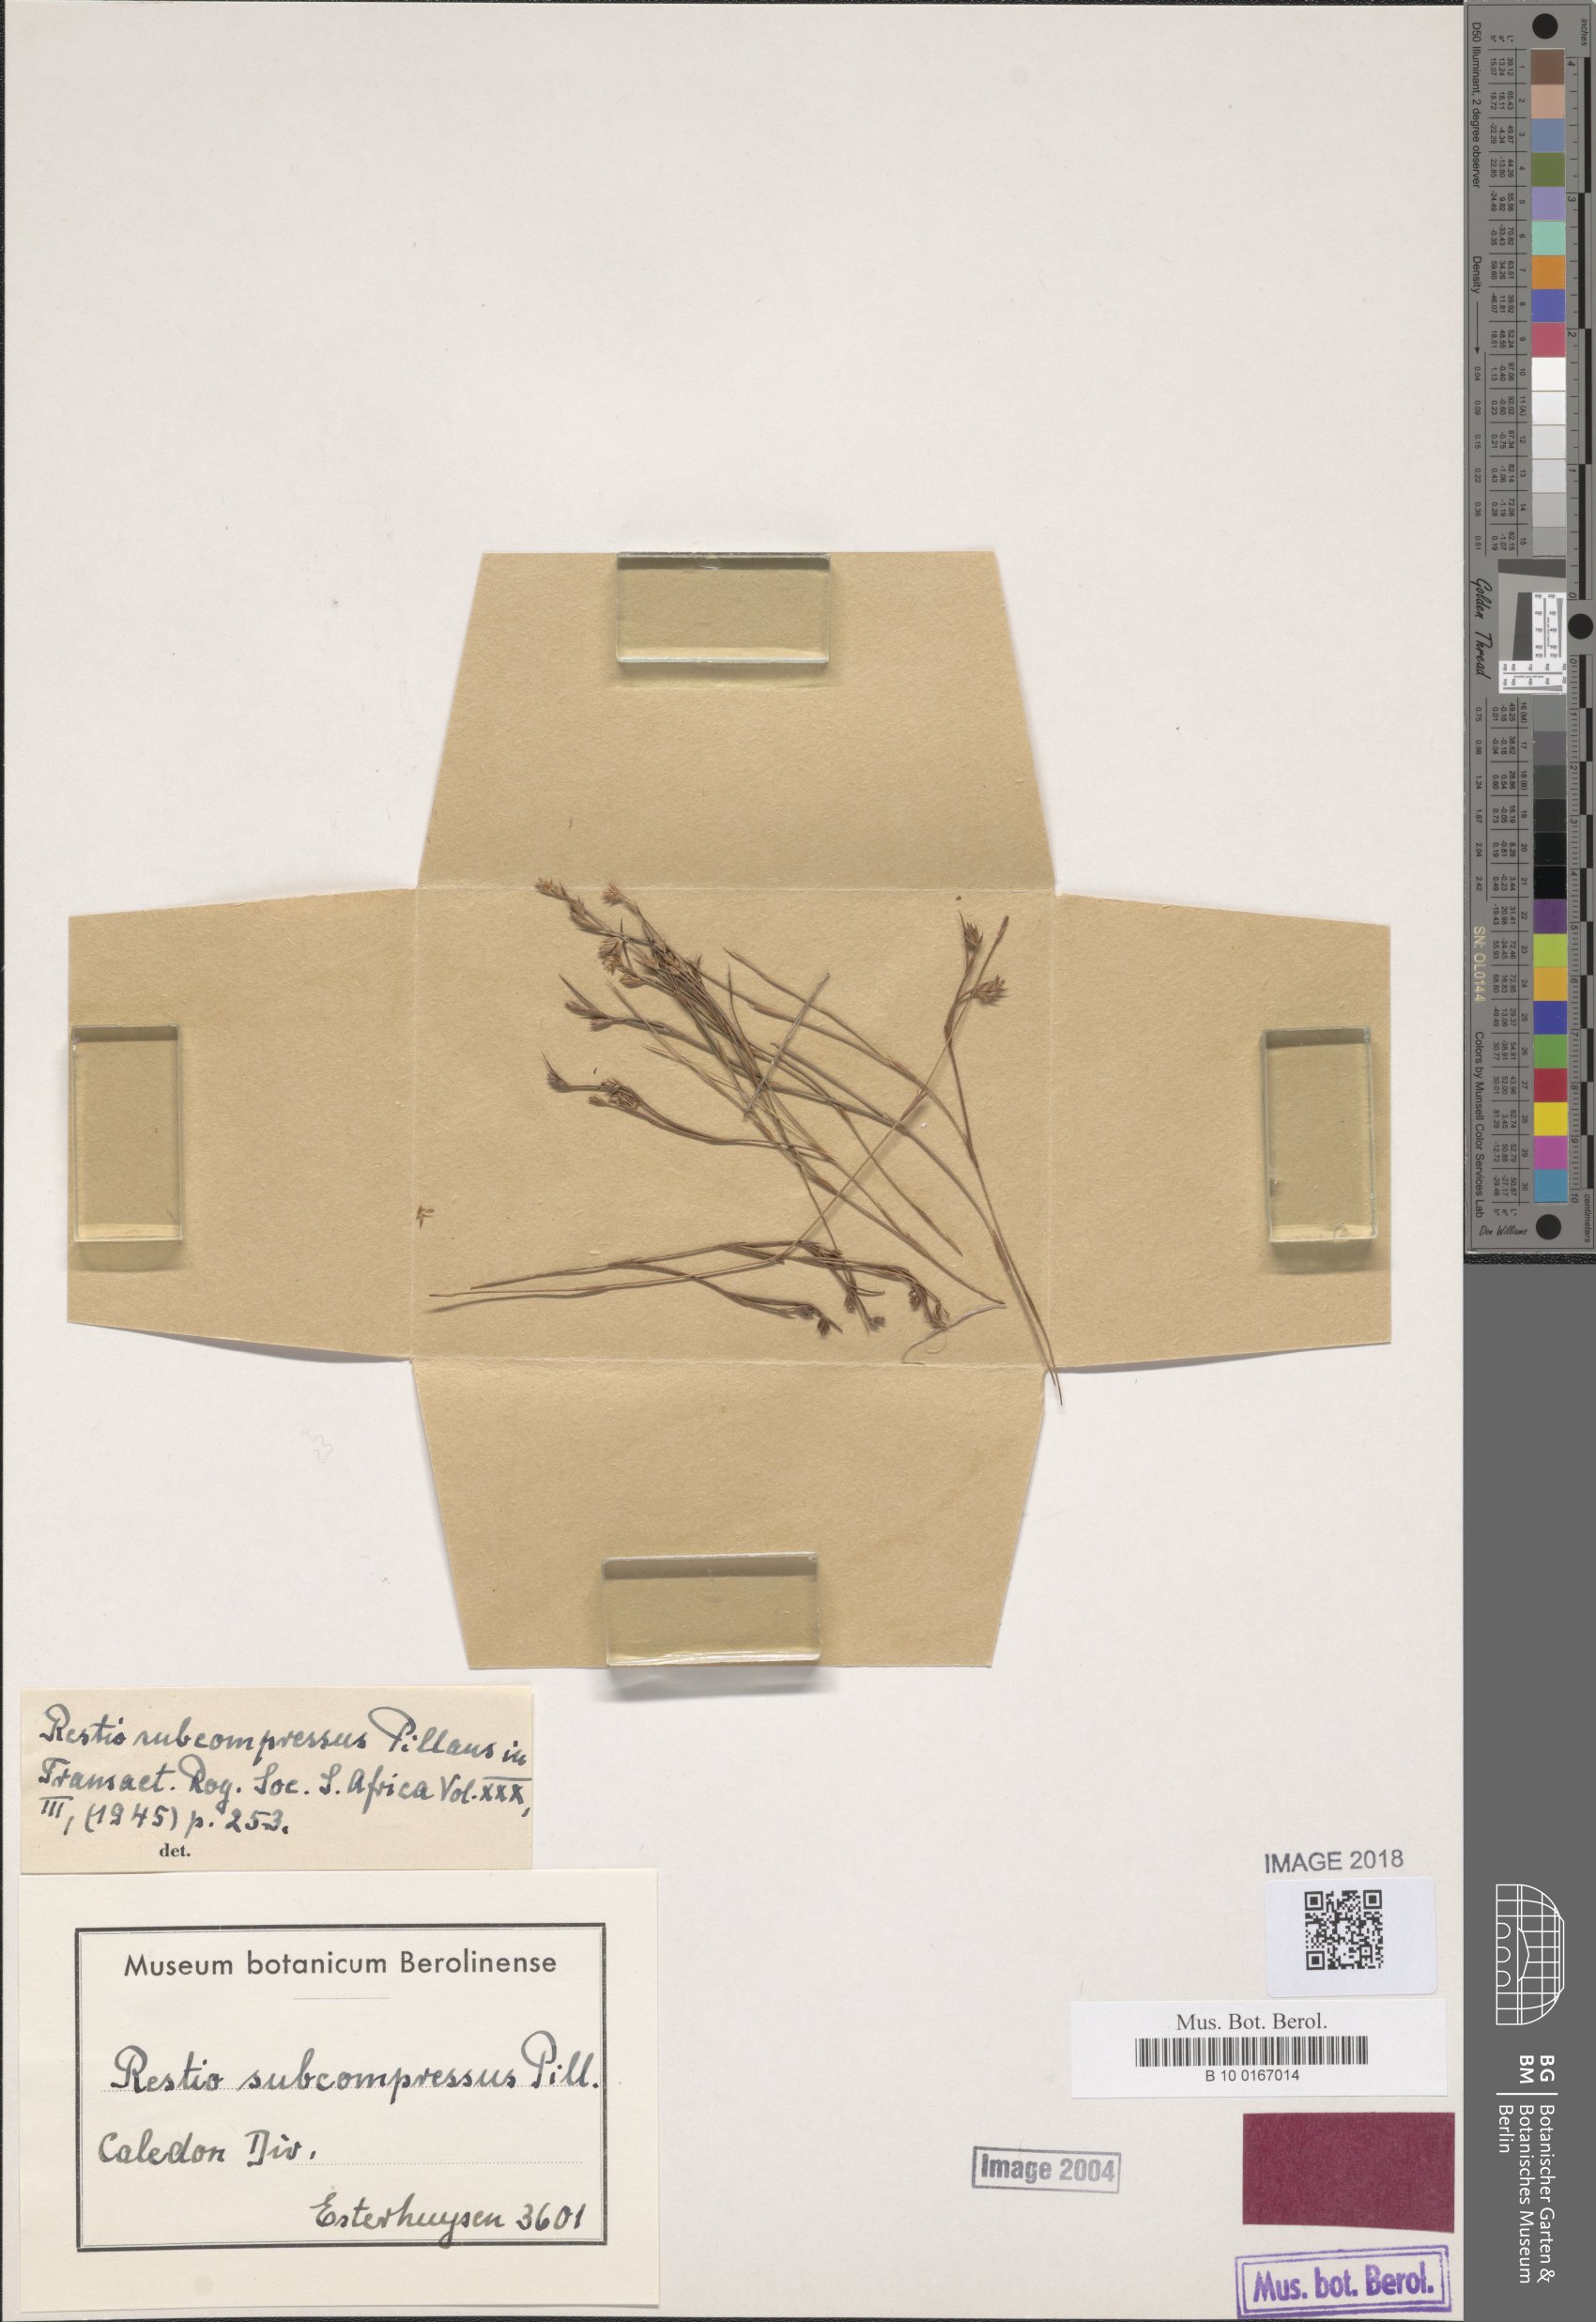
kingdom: Plantae
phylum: Tracheophyta
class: Liliopsida
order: Poales
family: Restionaceae
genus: Platycaulos
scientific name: Platycaulos subcompressus
